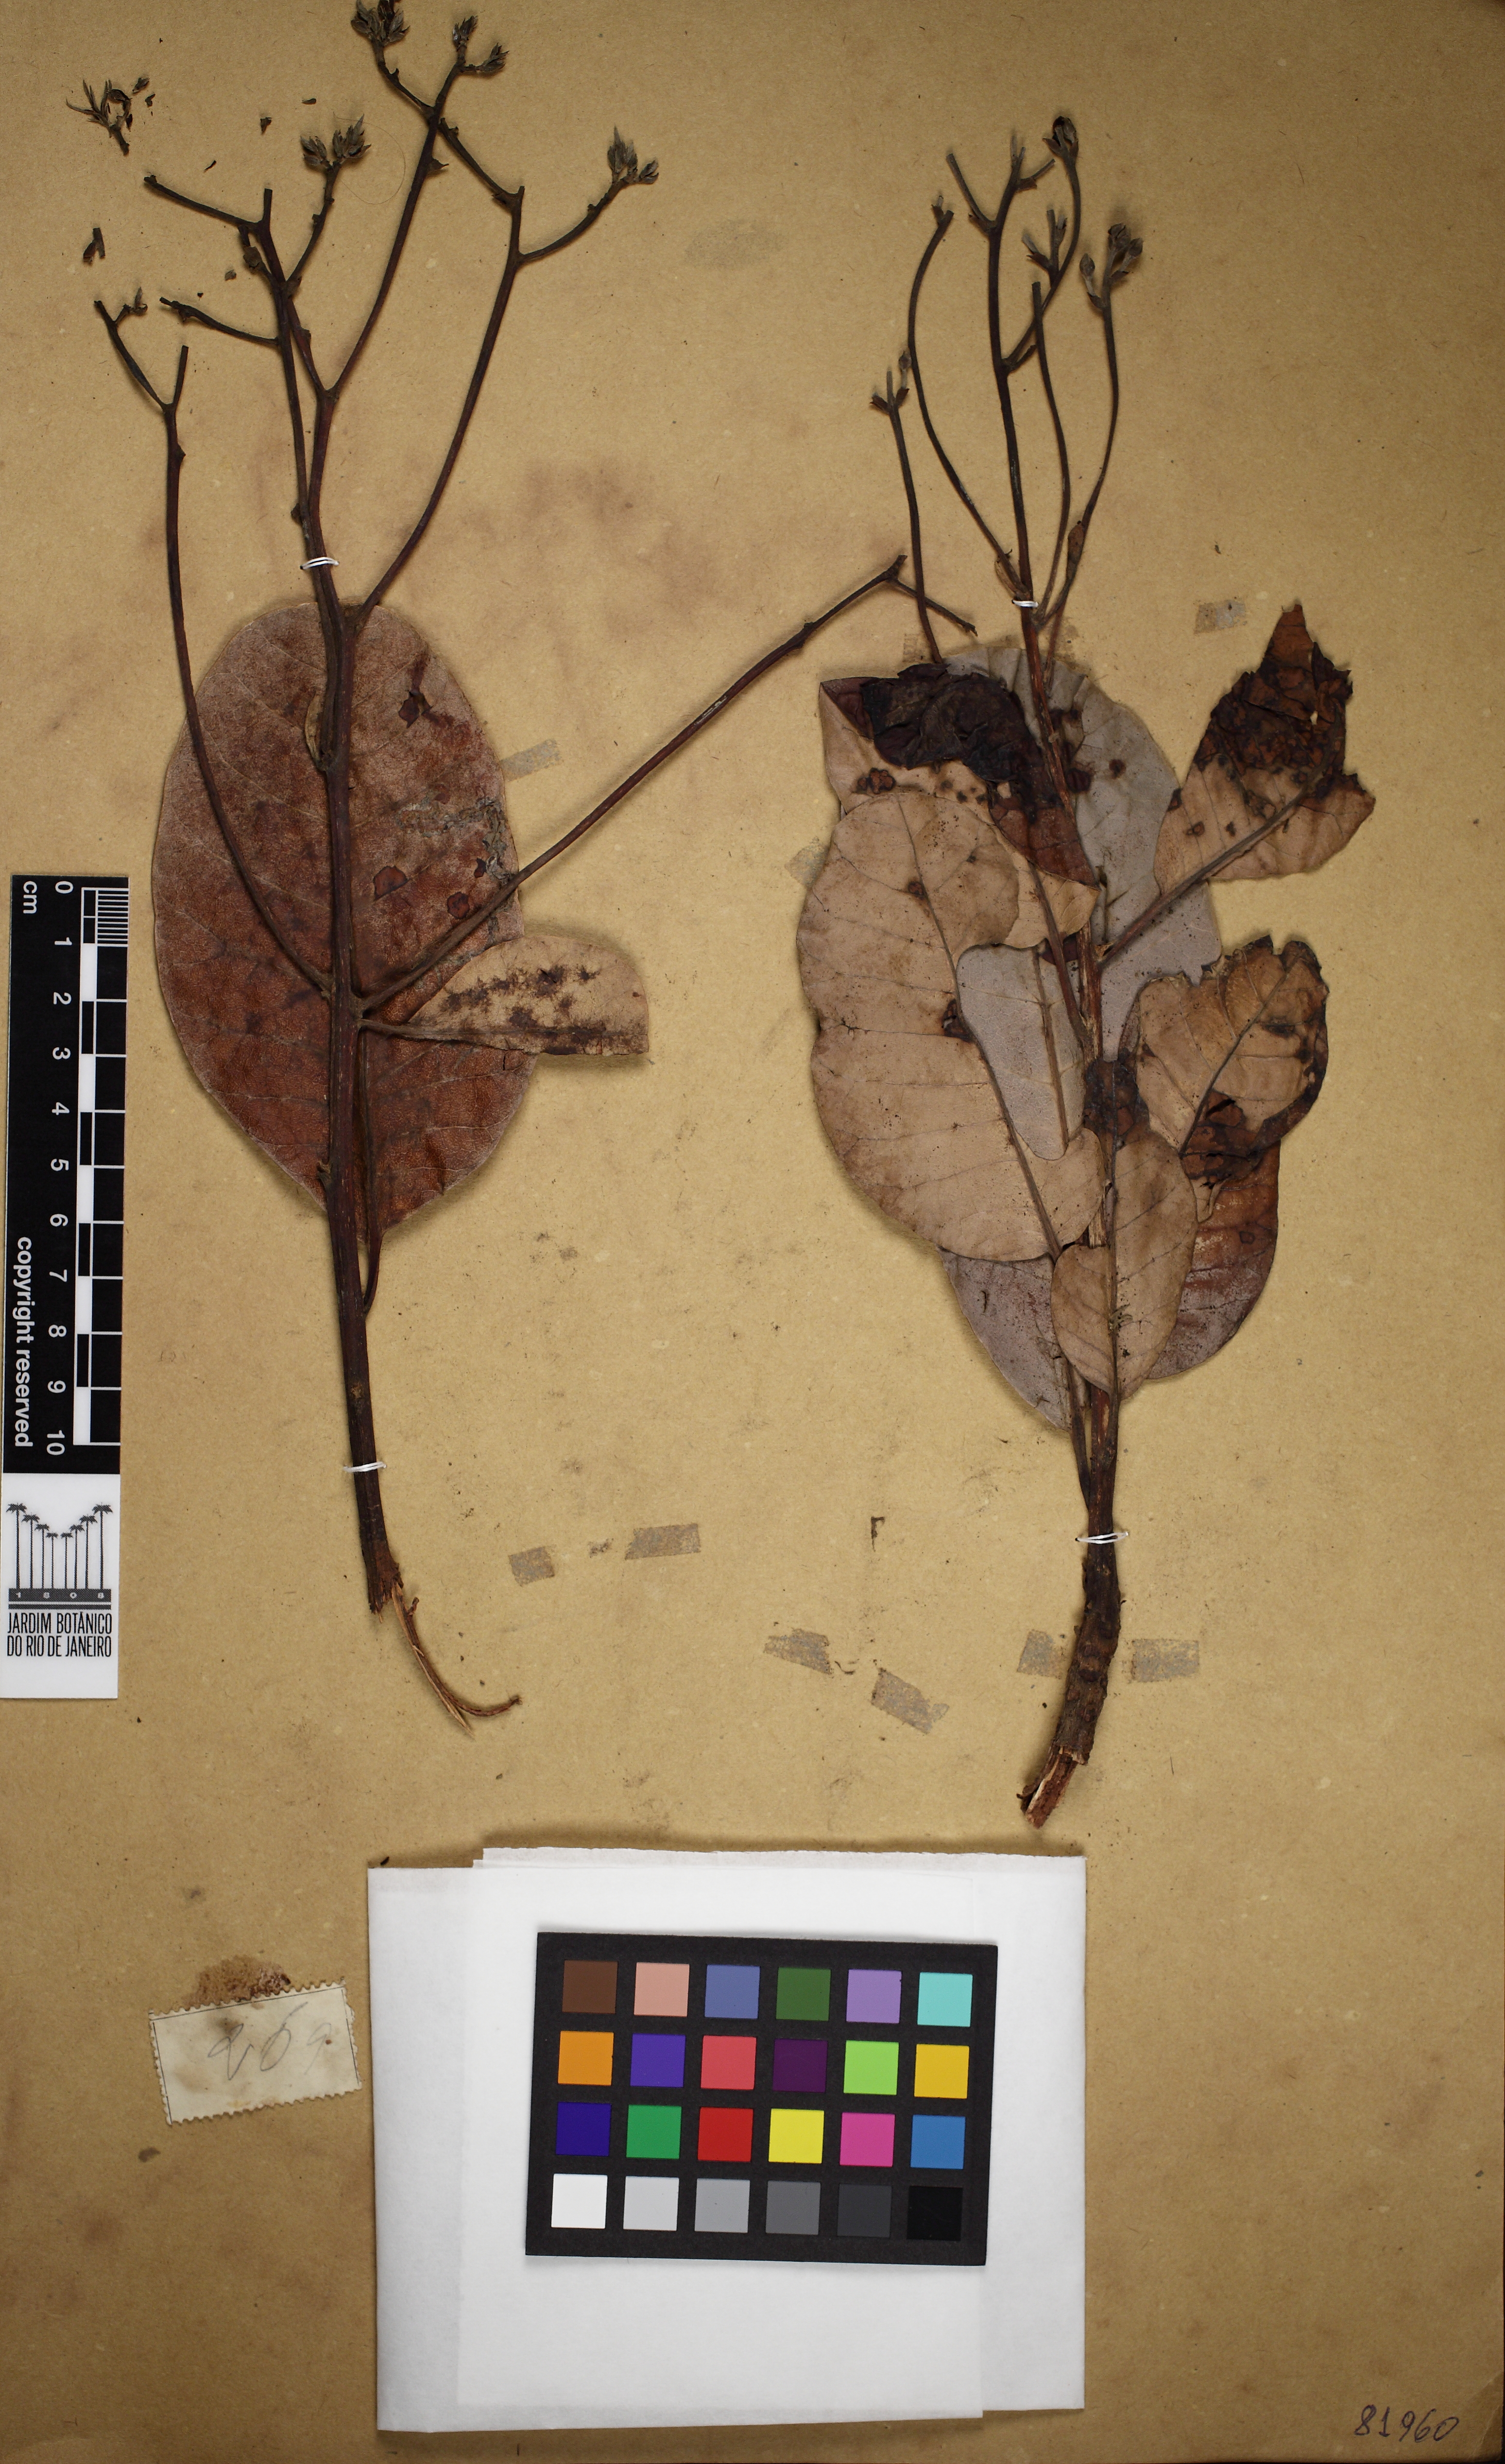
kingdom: Plantae
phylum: Tracheophyta
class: Magnoliopsida
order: Sapindales
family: Anacardiaceae
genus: Anacardium
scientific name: Anacardium occidentale
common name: Cashew
